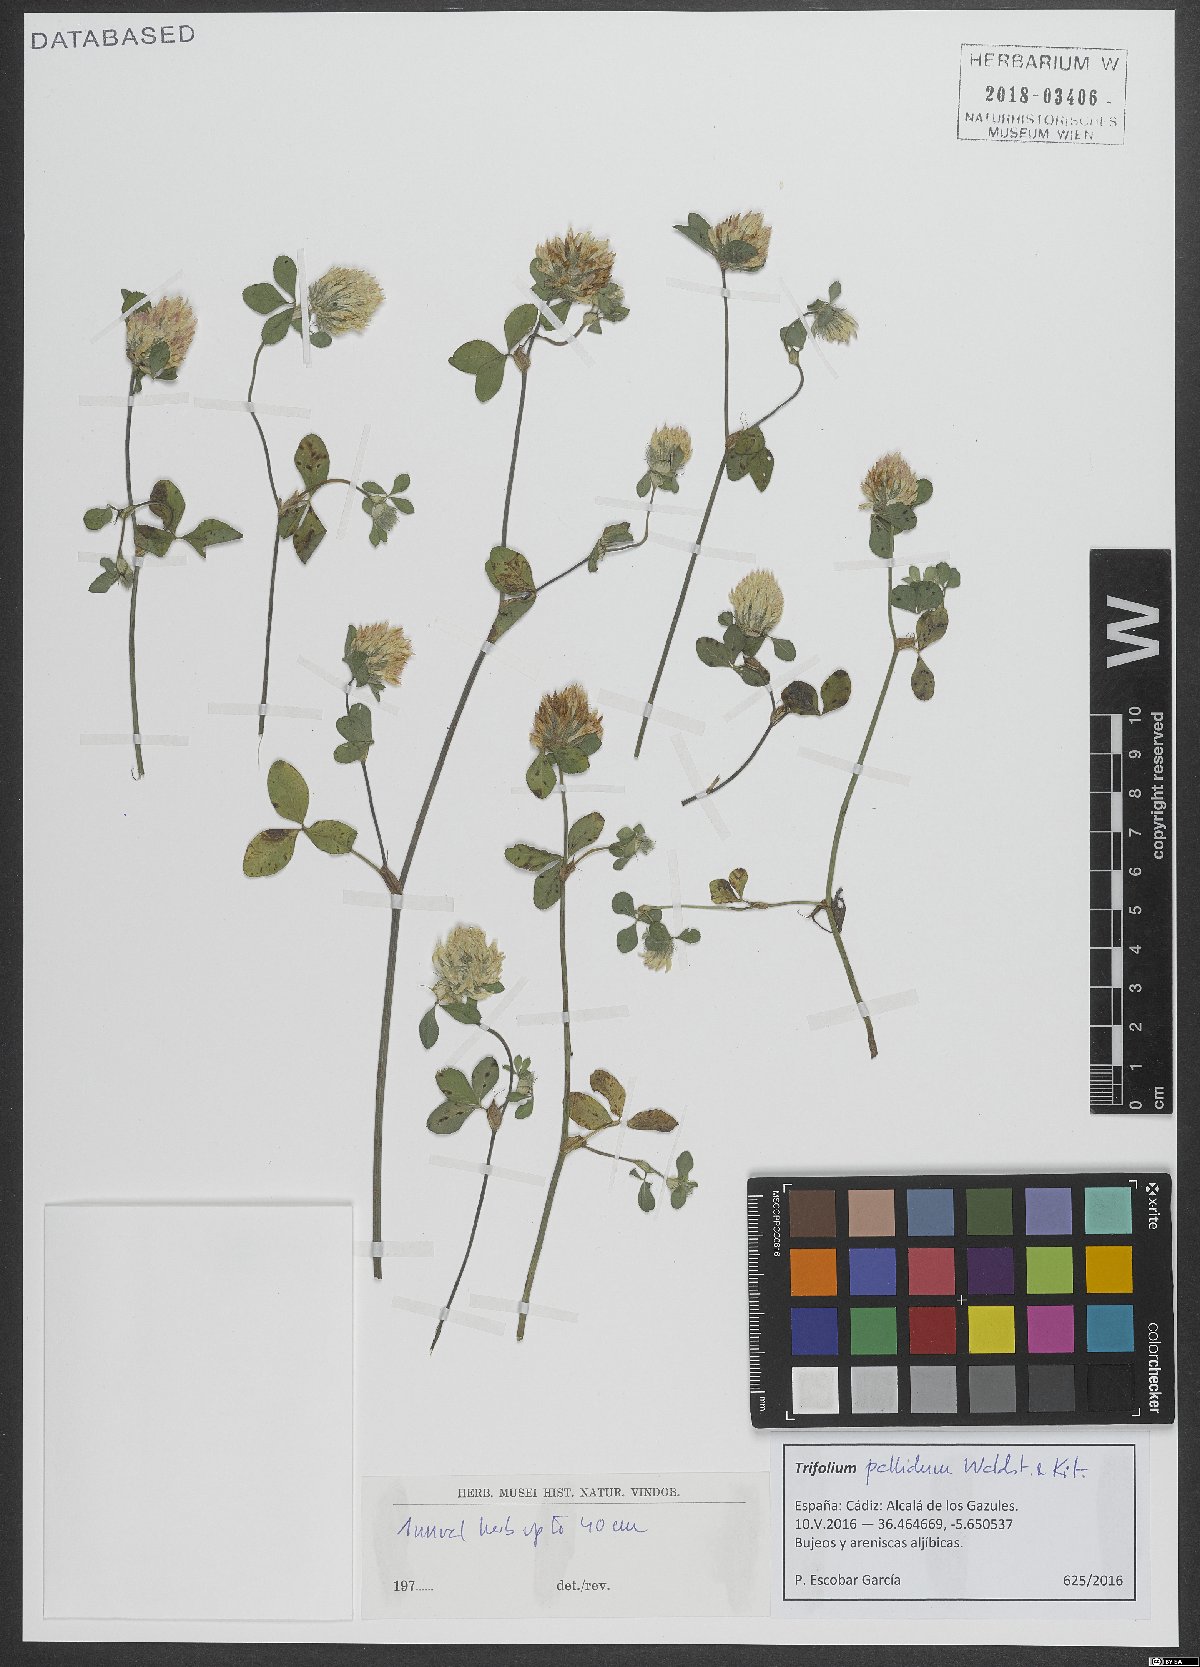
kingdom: Plantae
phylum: Tracheophyta
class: Magnoliopsida
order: Fabales
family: Fabaceae
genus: Trifolium
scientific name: Trifolium pallidum
